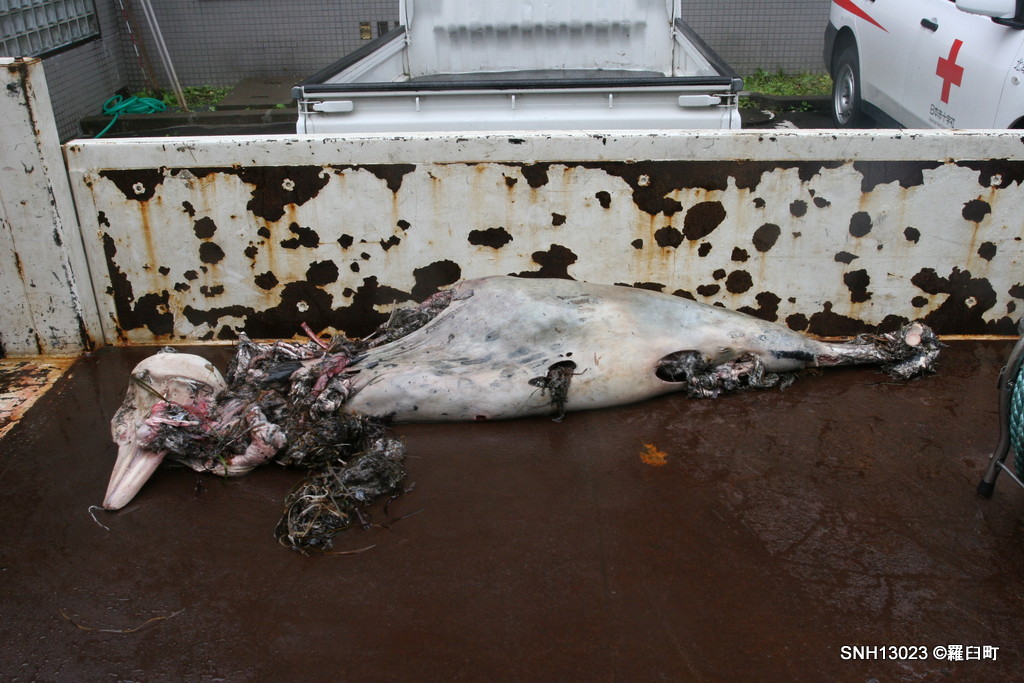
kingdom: Animalia
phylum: Chordata
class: Mammalia
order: Cetacea
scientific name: Cetacea
